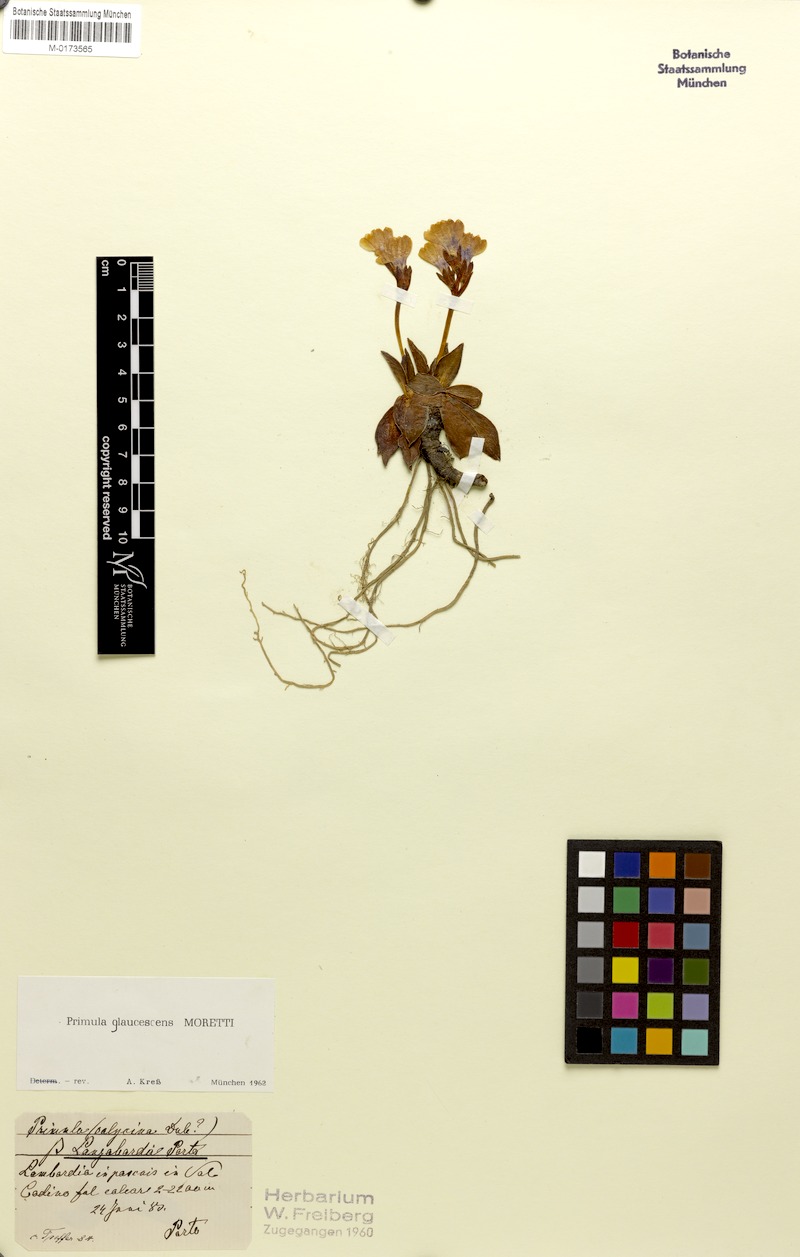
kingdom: Plantae
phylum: Tracheophyta
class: Magnoliopsida
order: Ericales
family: Primulaceae
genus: Primula
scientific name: Primula glaucescens
